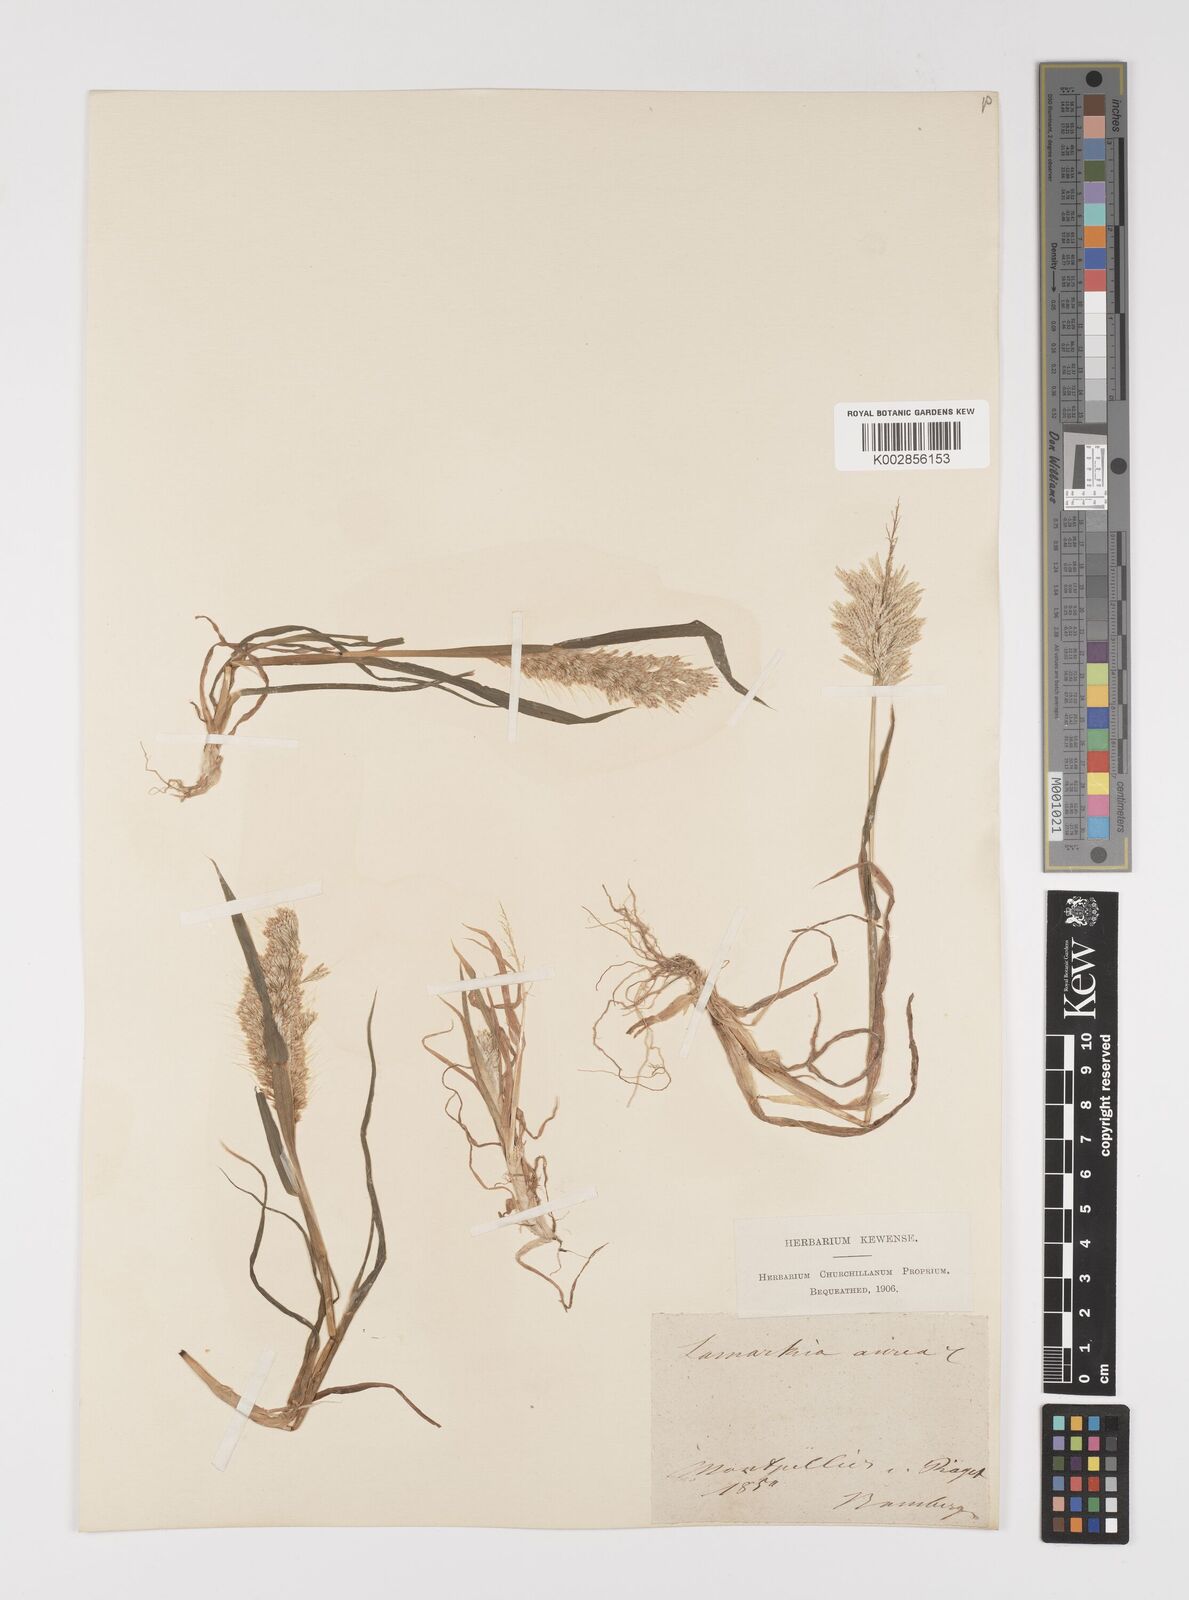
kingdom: Plantae
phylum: Tracheophyta
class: Liliopsida
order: Poales
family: Poaceae
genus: Lamarckia
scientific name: Lamarckia aurea
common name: Golden dog's-tail
